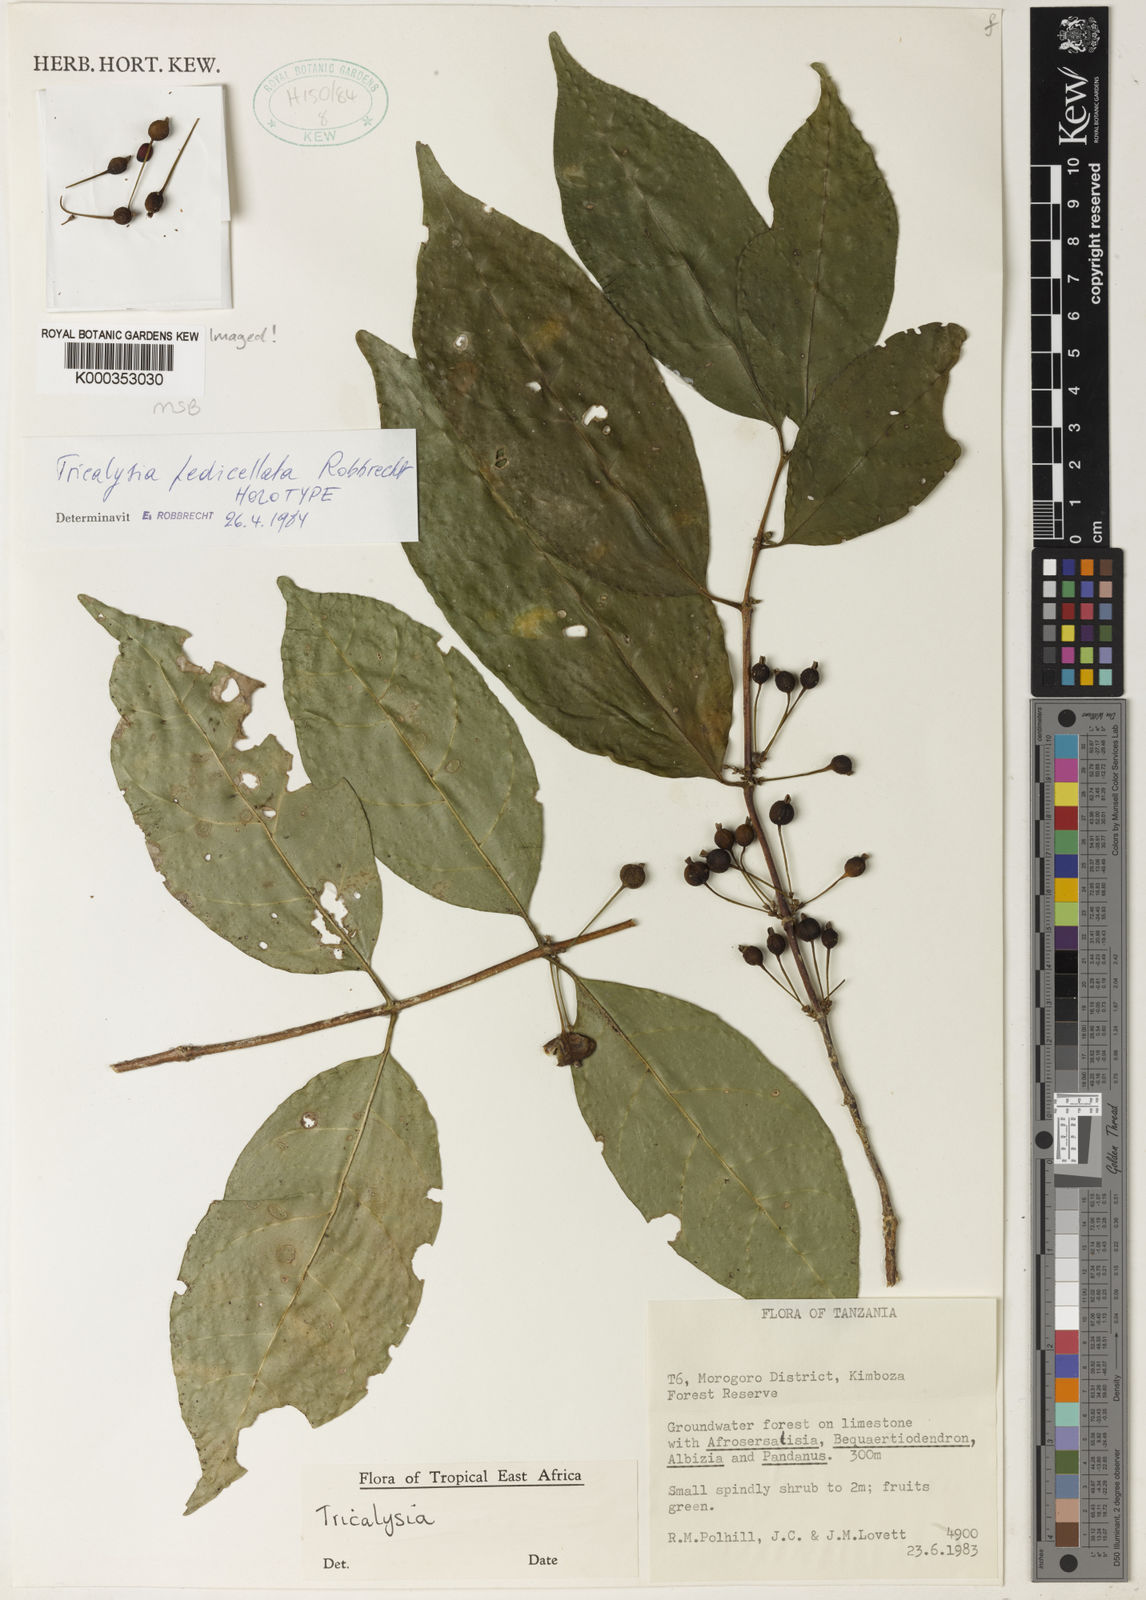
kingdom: Plantae
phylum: Tracheophyta
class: Magnoliopsida
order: Gentianales
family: Rubiaceae
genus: Tricalysia
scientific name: Tricalysia pedicellata
